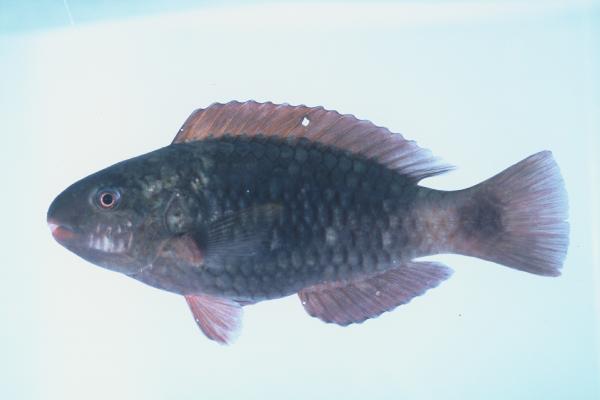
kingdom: Animalia
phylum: Chordata
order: Perciformes
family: Scaridae
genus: Chlorurus
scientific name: Chlorurus sordidus
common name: Bullethead parrotfish
